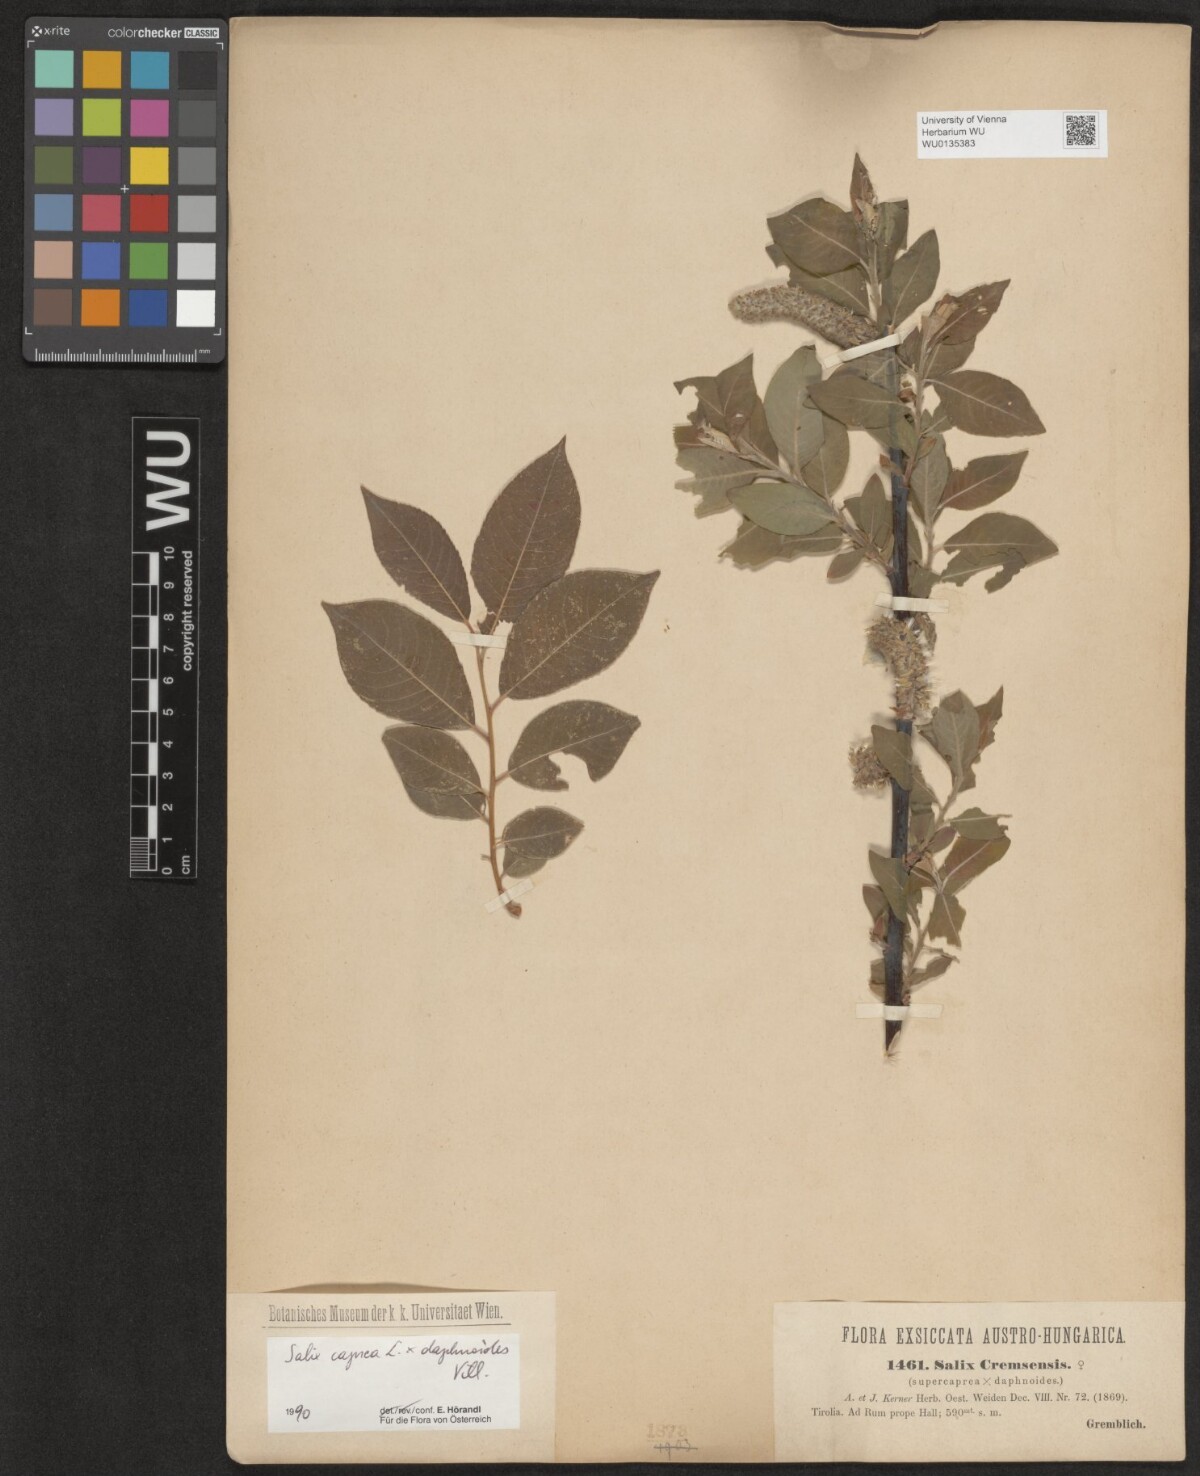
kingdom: Plantae
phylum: Tracheophyta
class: Magnoliopsida
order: Malpighiales
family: Salicaceae
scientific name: Salicaceae
